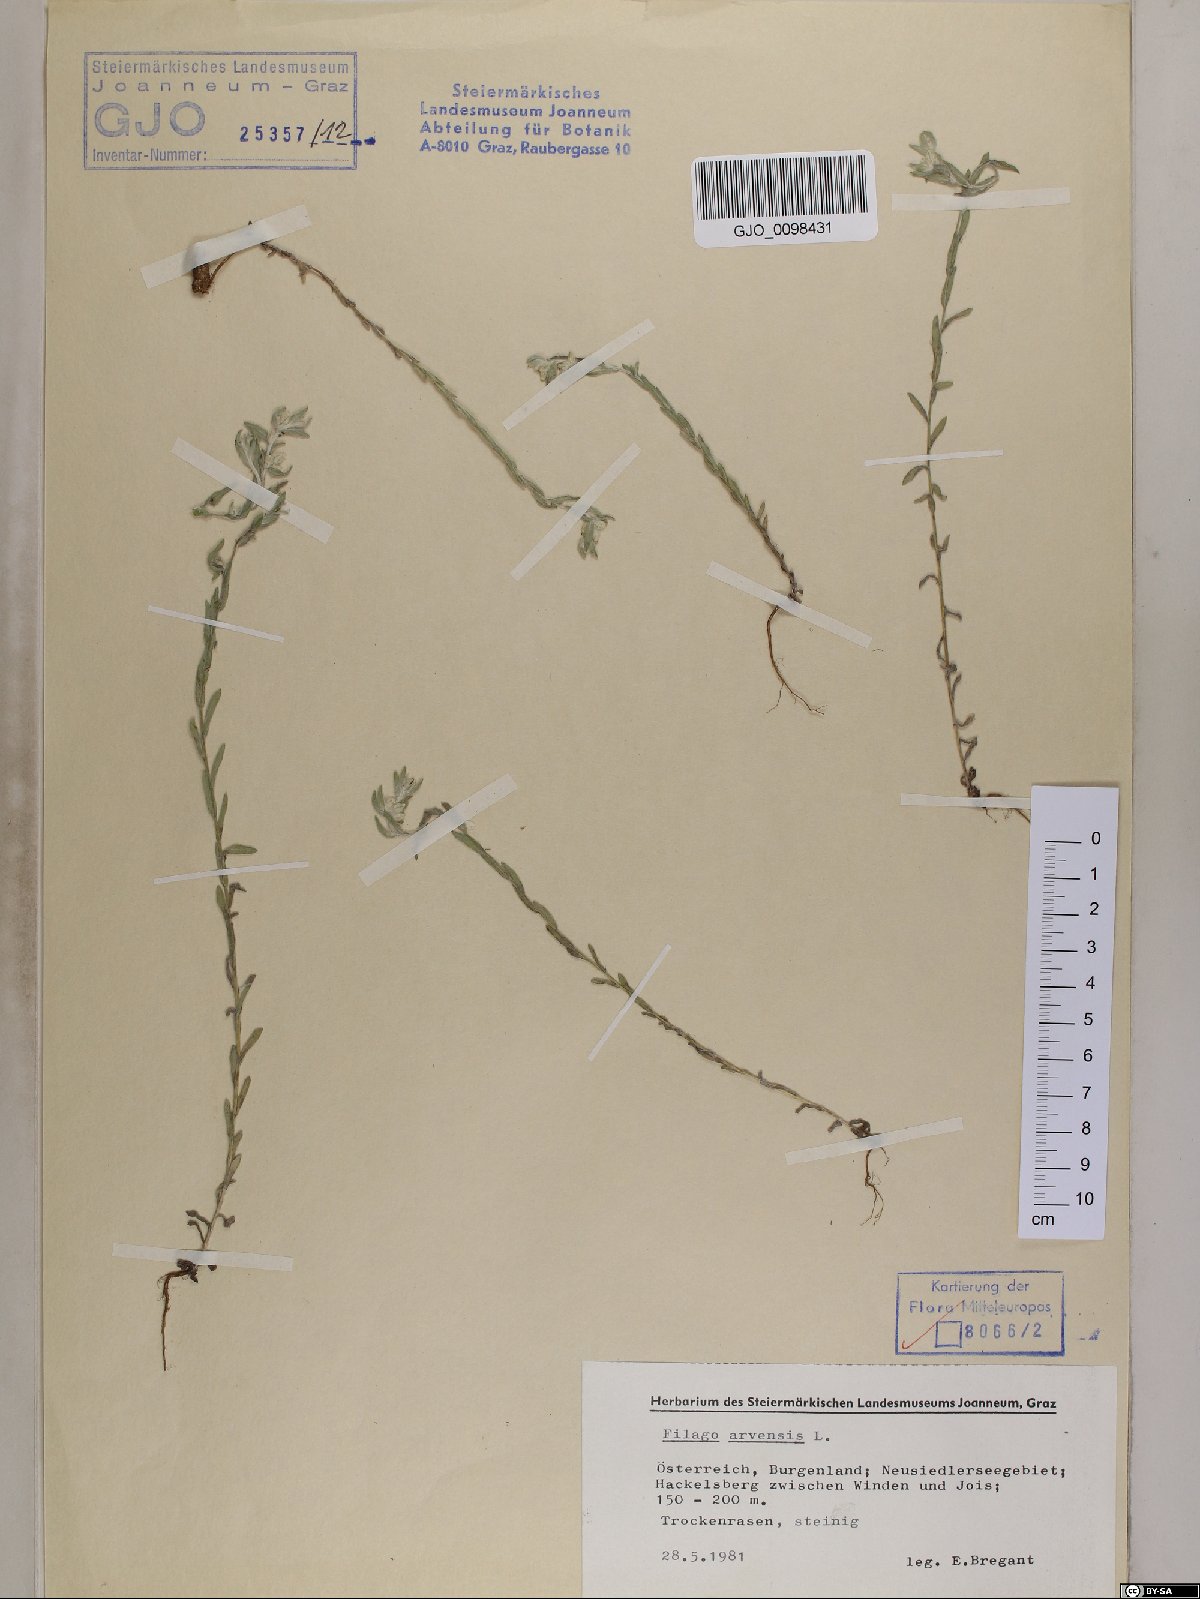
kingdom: Plantae
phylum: Tracheophyta
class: Magnoliopsida
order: Asterales
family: Asteraceae
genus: Filago
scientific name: Filago arvensis
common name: Field cudweed
